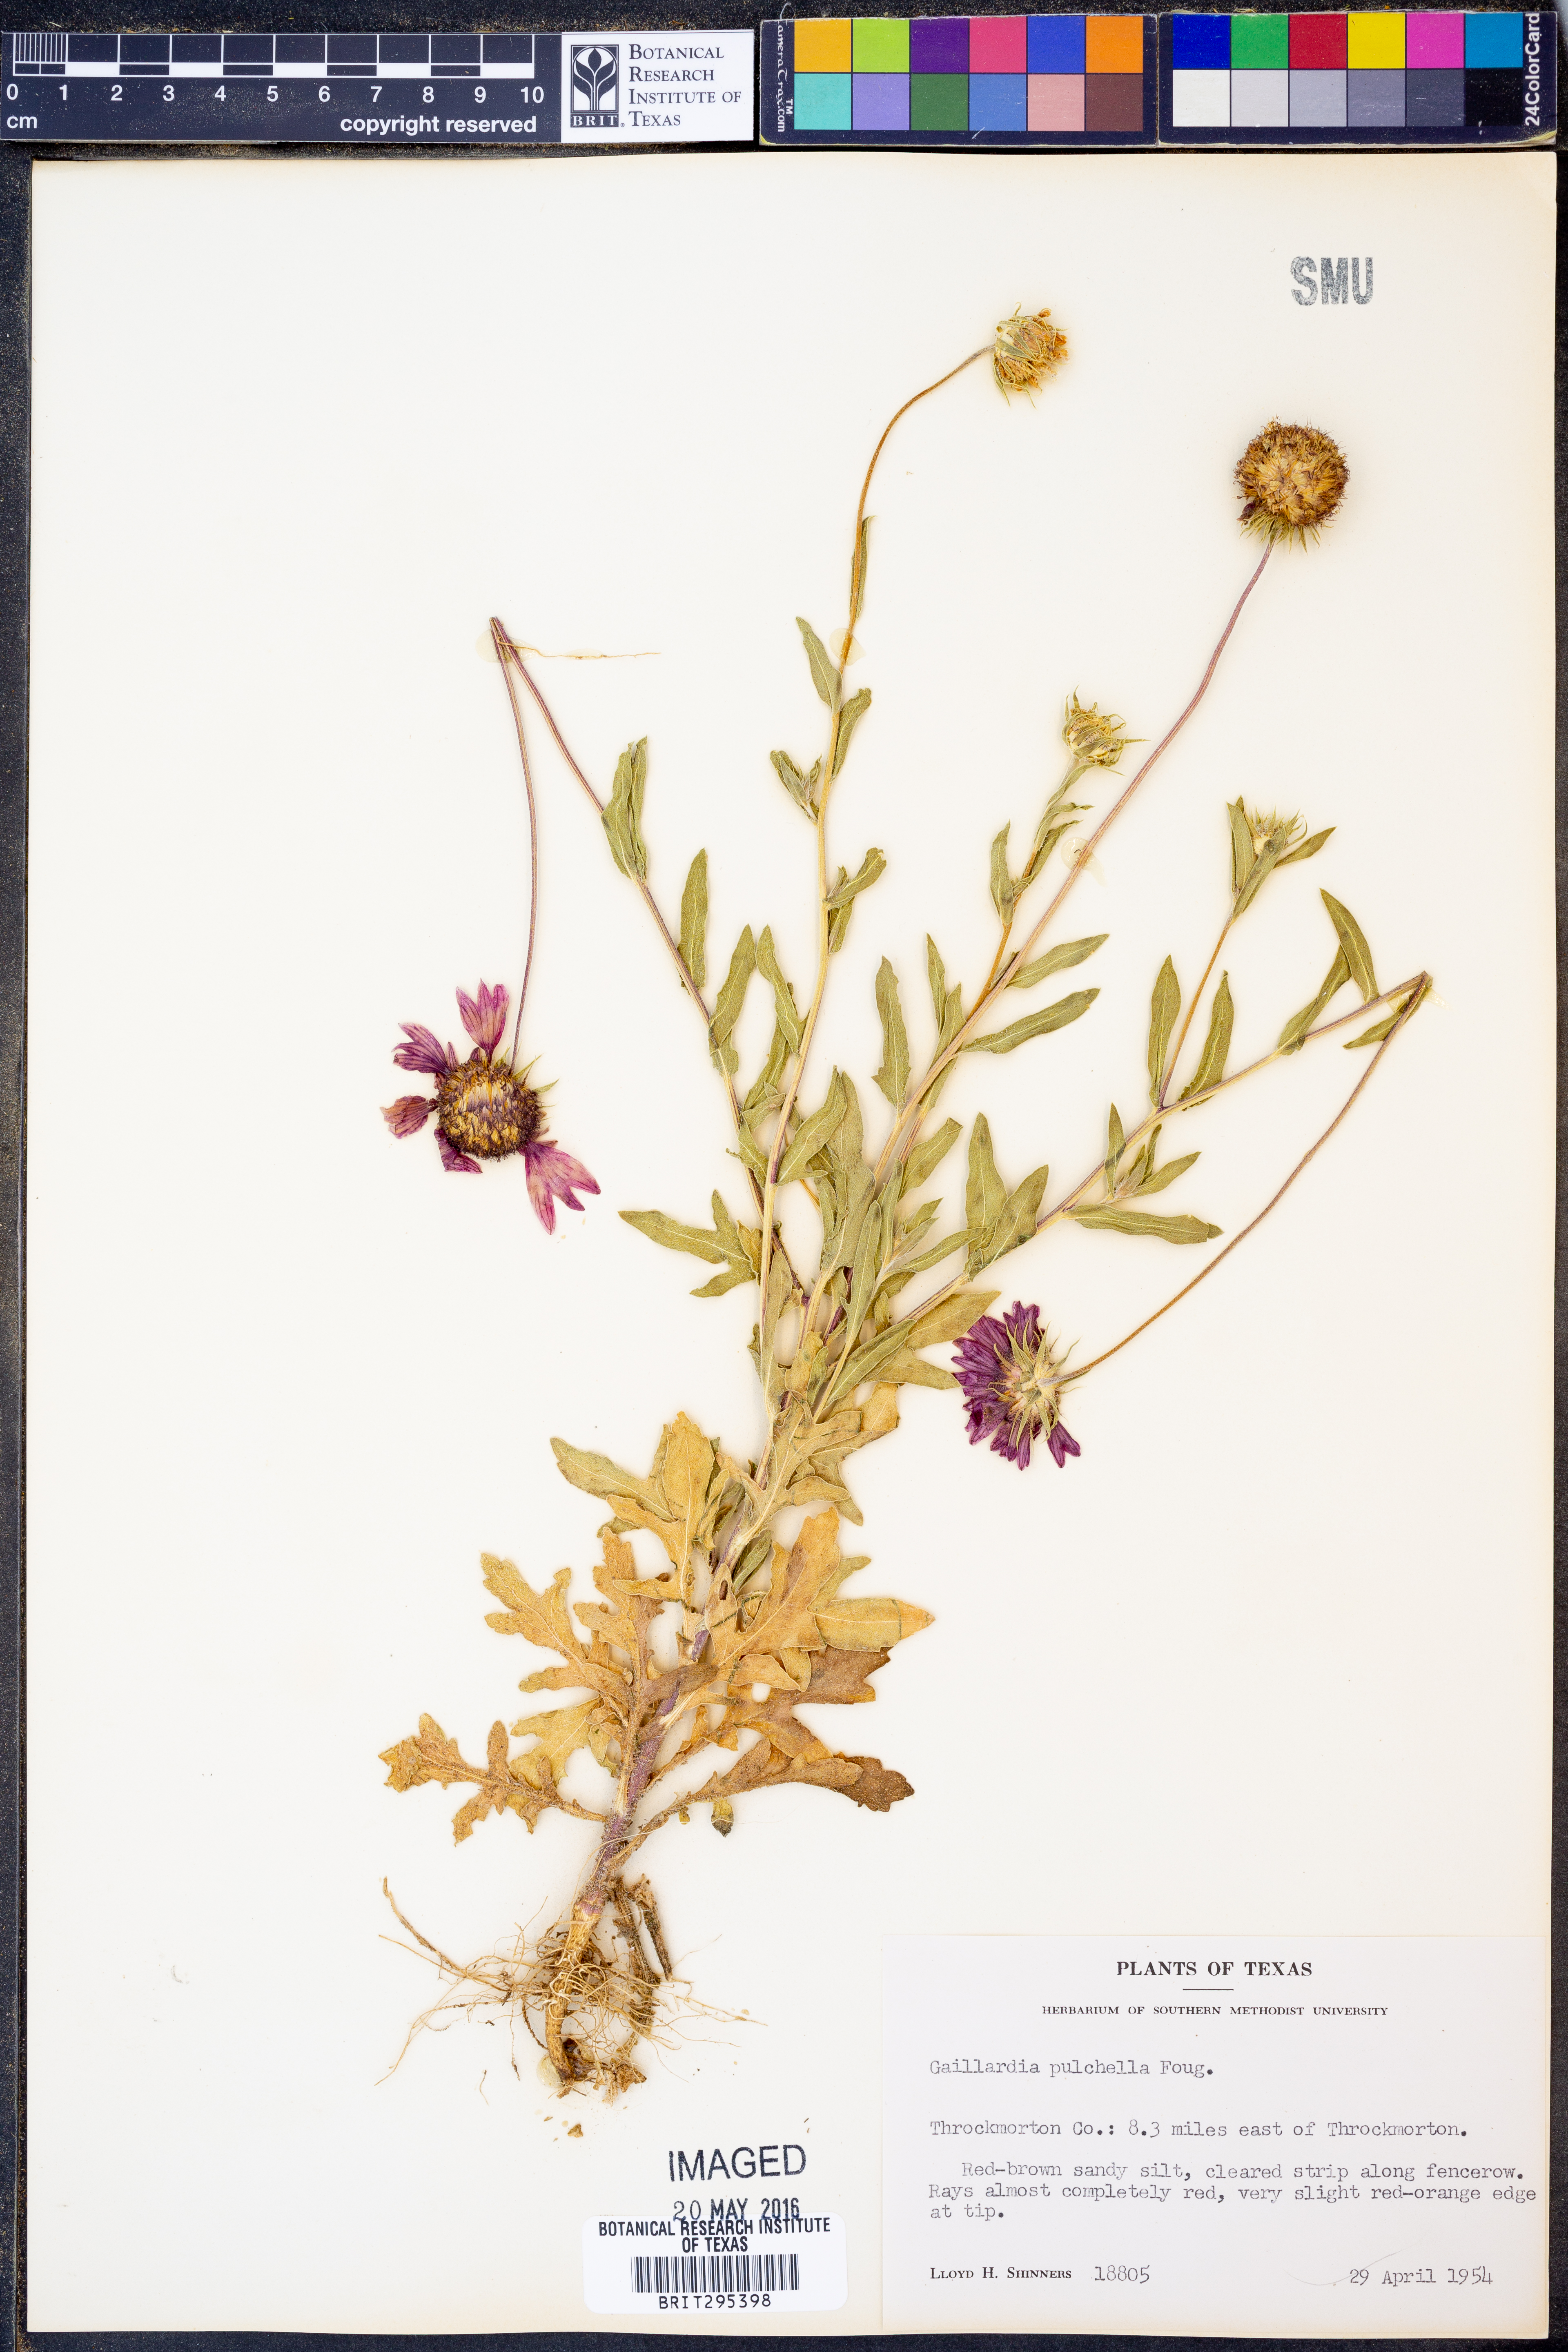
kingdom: Plantae
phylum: Tracheophyta
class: Magnoliopsida
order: Asterales
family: Asteraceae
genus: Gaillardia
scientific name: Gaillardia pulchella
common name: Firewheel
